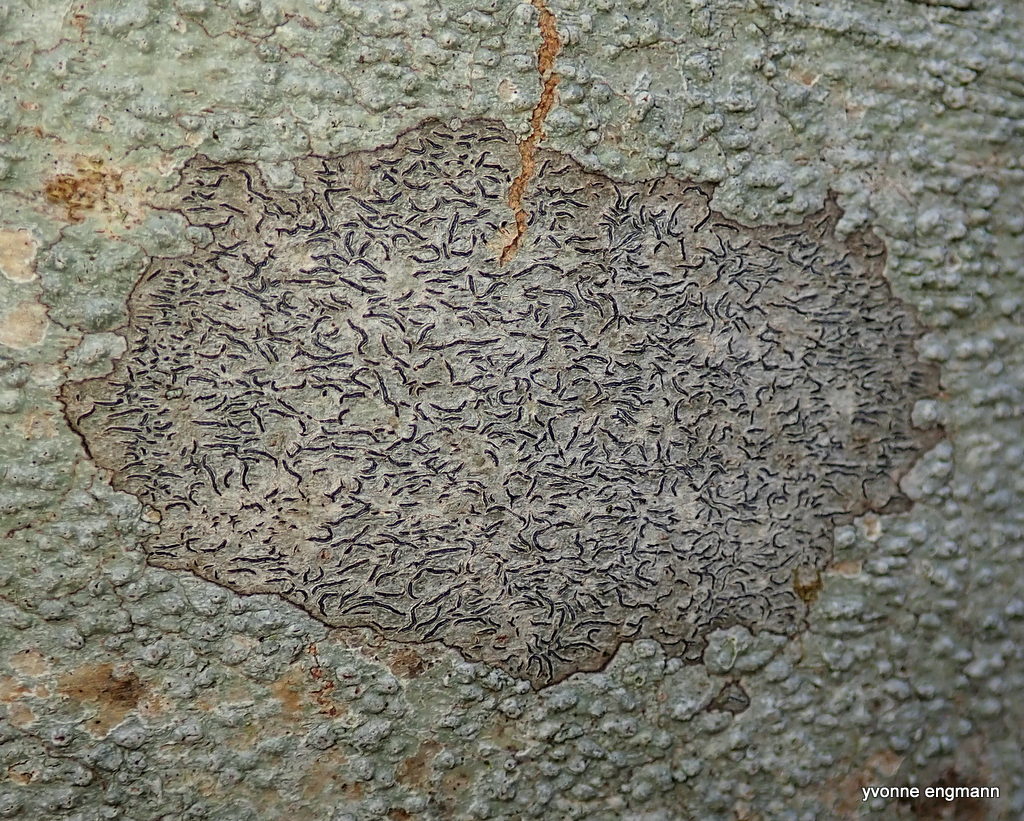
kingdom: Fungi
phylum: Ascomycota
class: Lecanoromycetes
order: Ostropales
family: Graphidaceae
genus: Graphis
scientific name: Graphis scripta
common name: almindelig skriftlav
